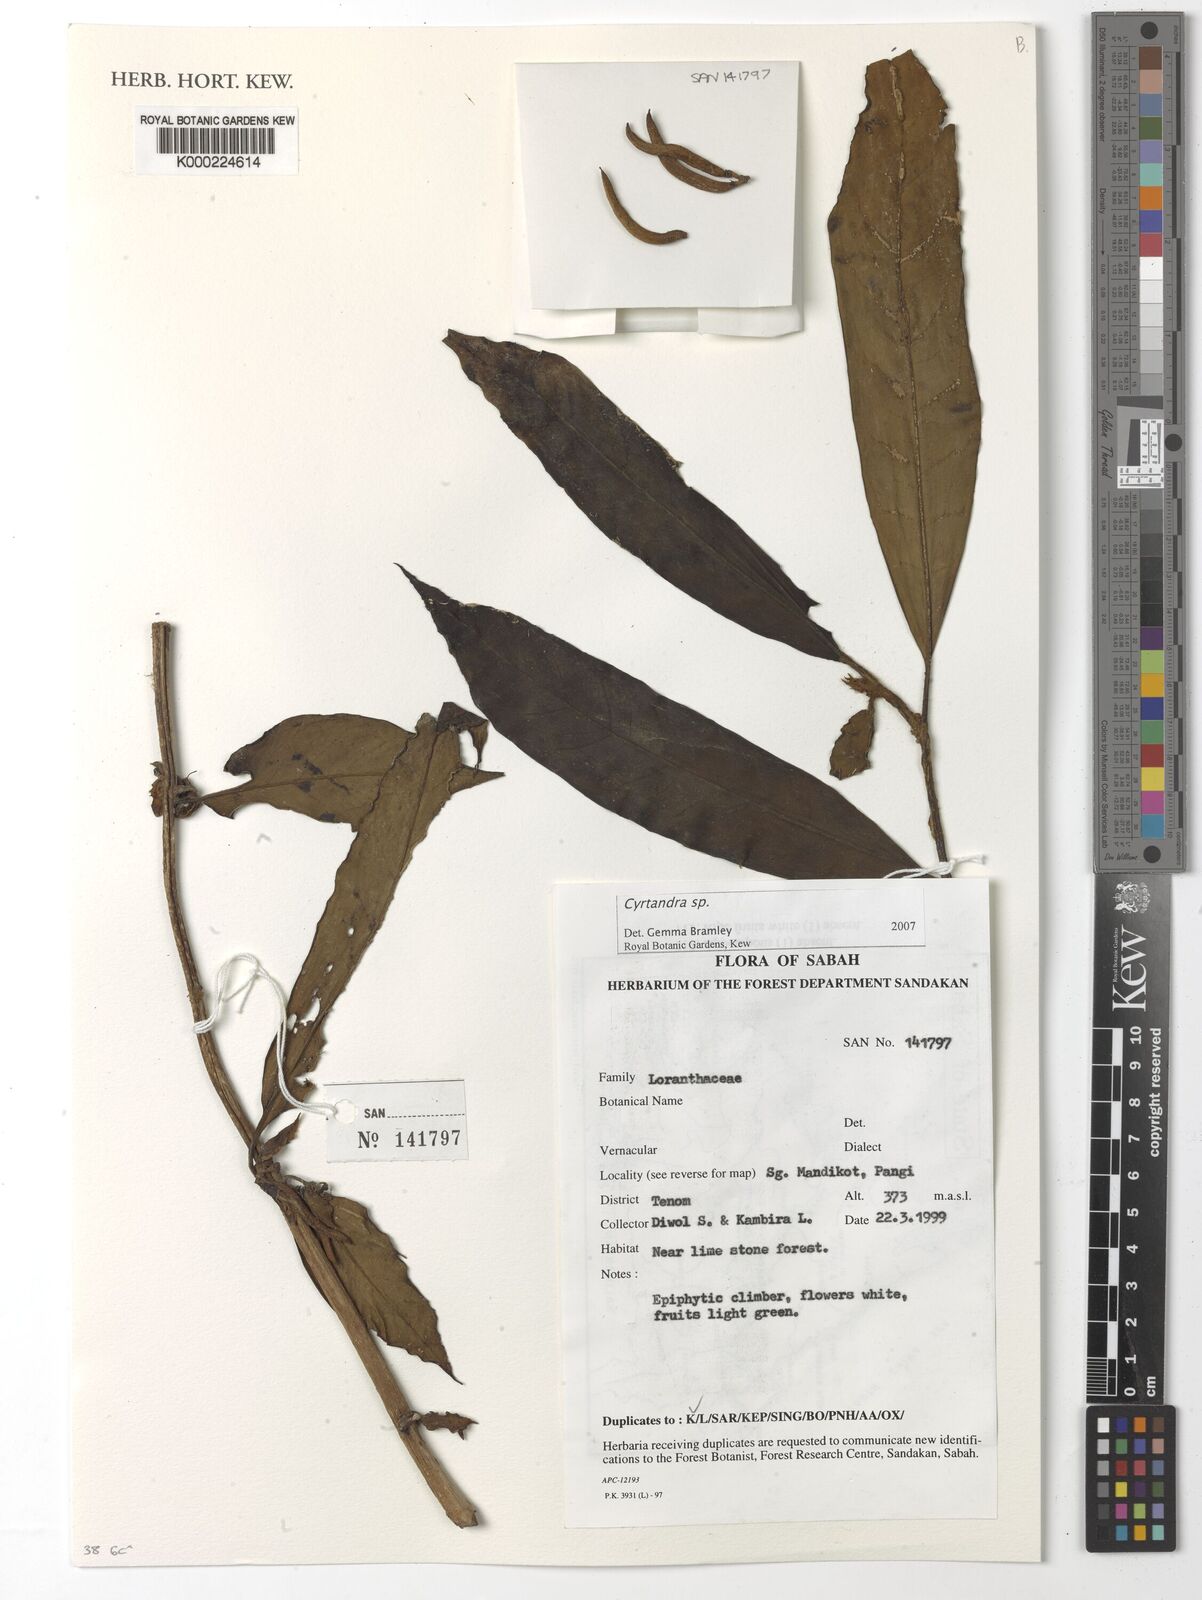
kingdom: Plantae
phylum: Tracheophyta
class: Magnoliopsida
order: Lamiales
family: Gesneriaceae
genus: Cyrtandra
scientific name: Cyrtandra
